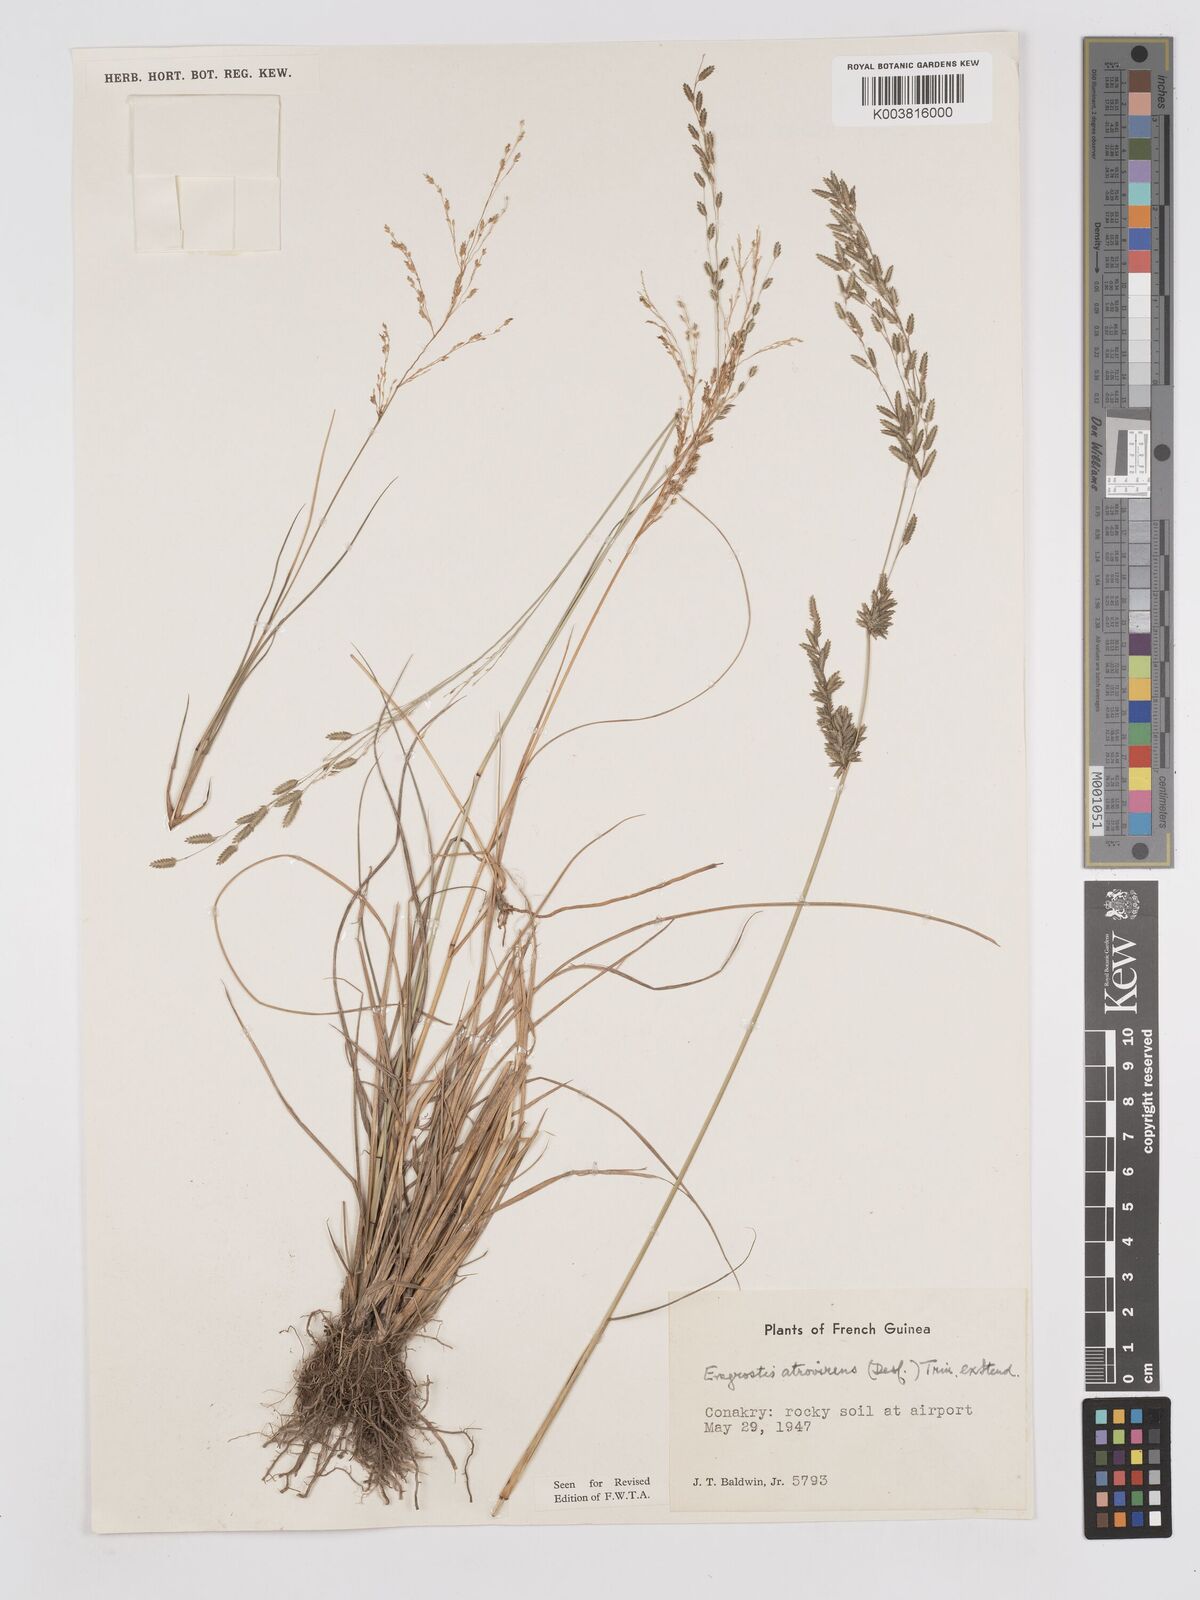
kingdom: Plantae
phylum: Tracheophyta
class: Liliopsida
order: Poales
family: Poaceae
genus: Eragrostis
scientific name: Eragrostis atrovirens
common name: Thalia lovegrass
